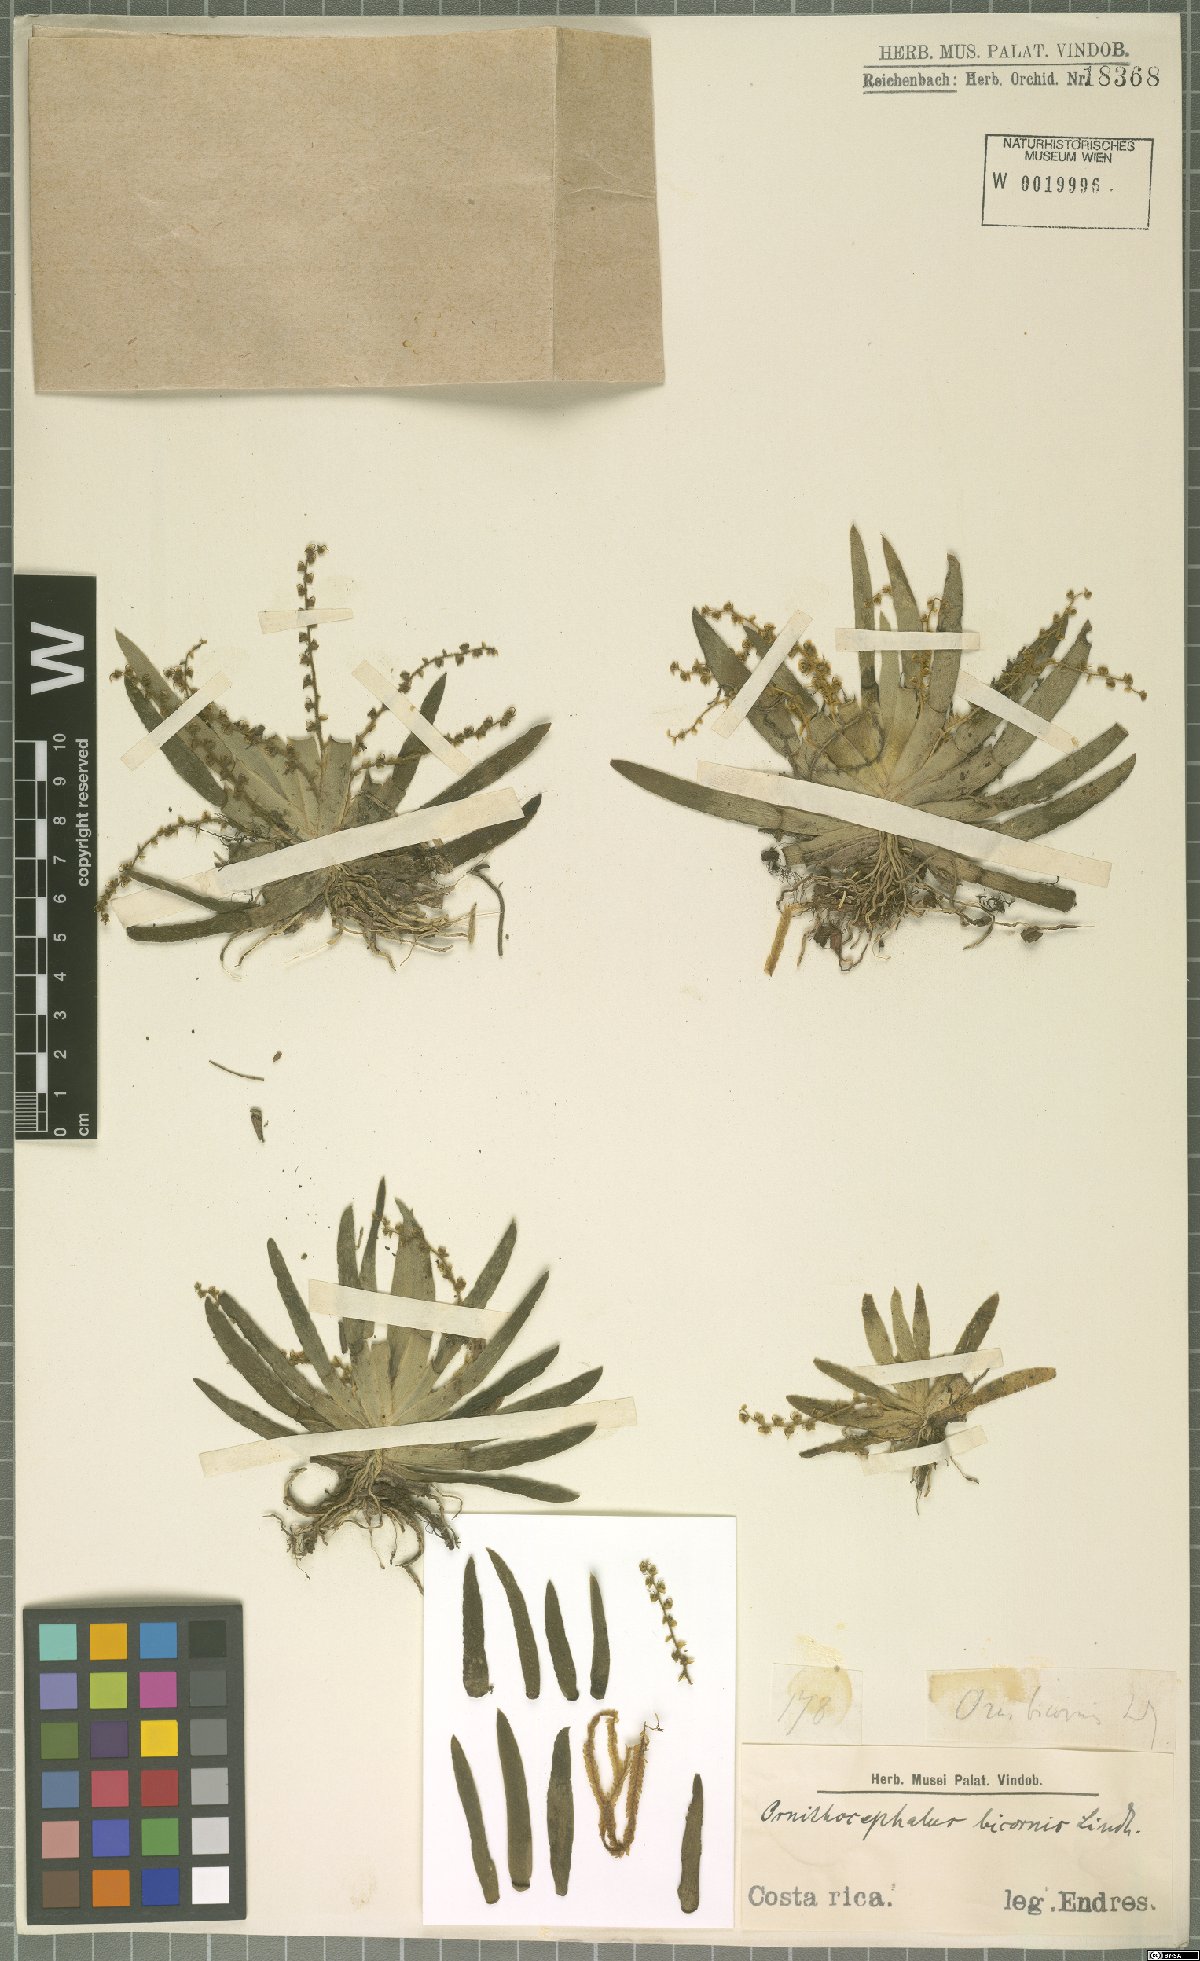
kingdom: Plantae
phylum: Tracheophyta
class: Liliopsida
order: Asparagales
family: Orchidaceae
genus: Ornithocephalus
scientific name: Ornithocephalus bicornis
